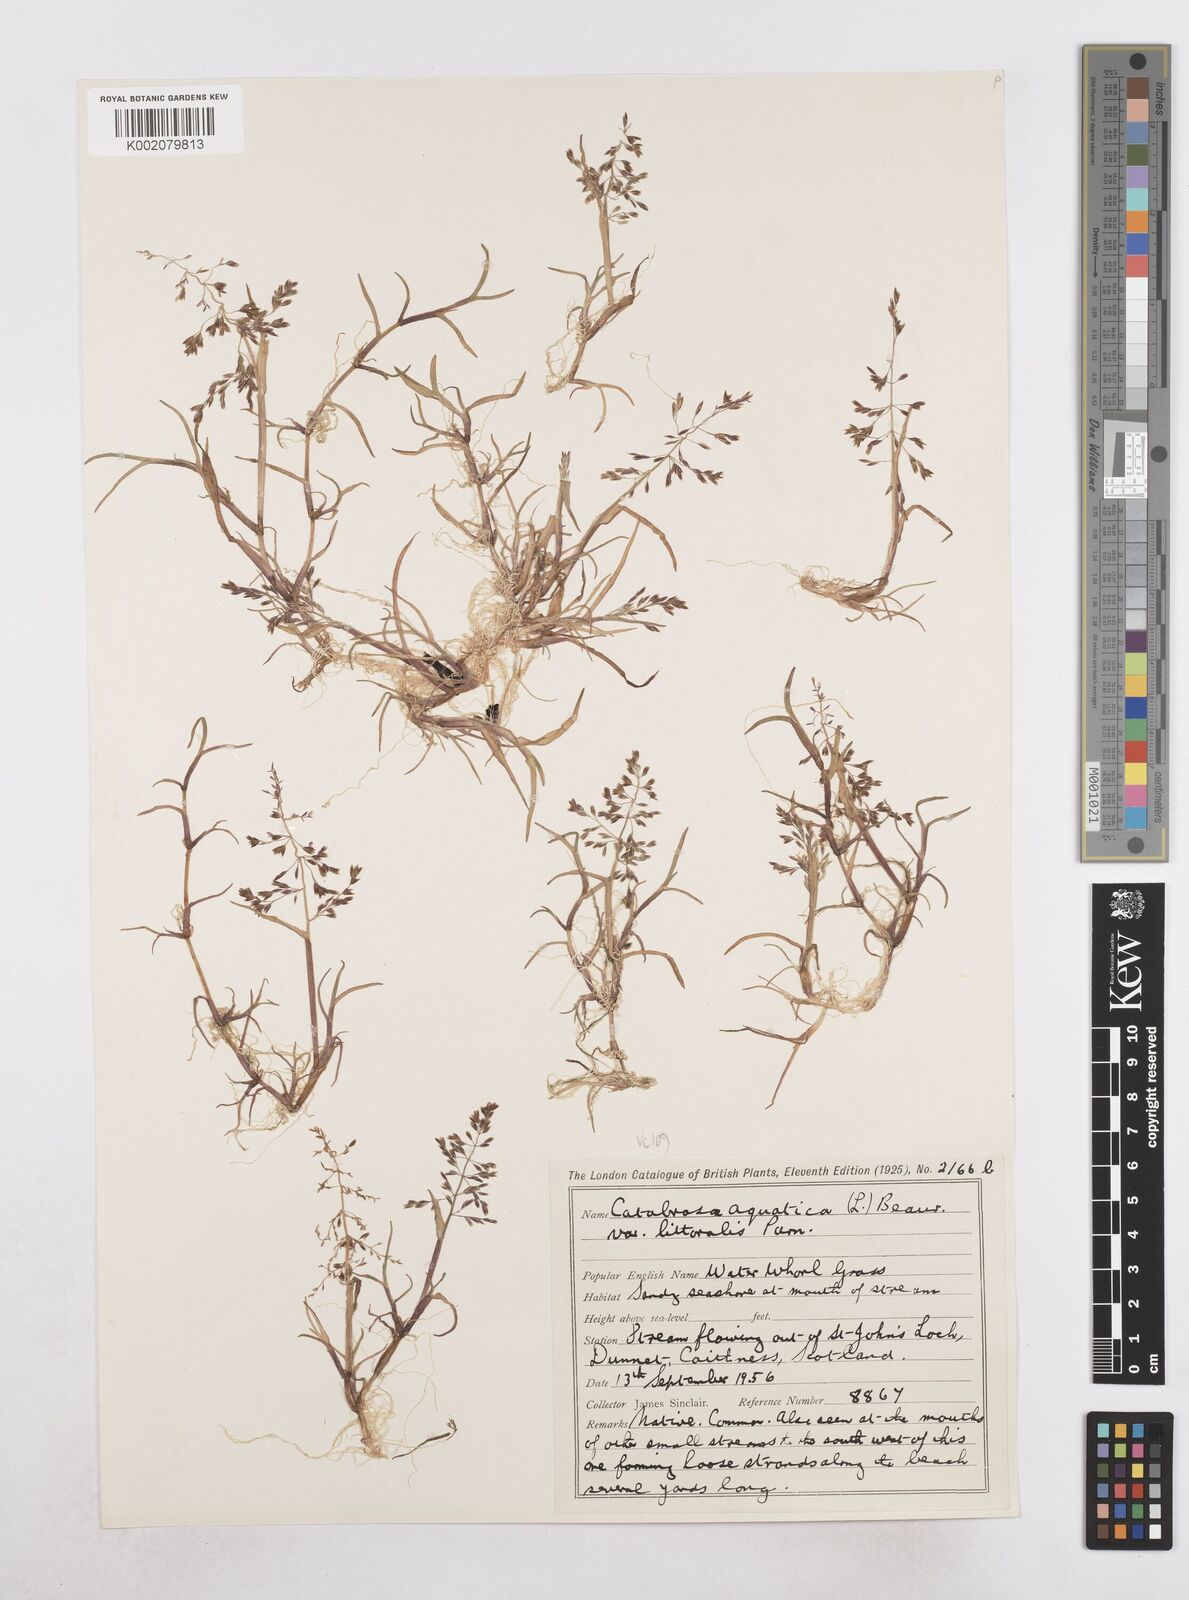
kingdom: Plantae
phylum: Tracheophyta
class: Liliopsida
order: Poales
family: Poaceae
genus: Catabrosa
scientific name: Catabrosa aquatica
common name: Whorl-grass
